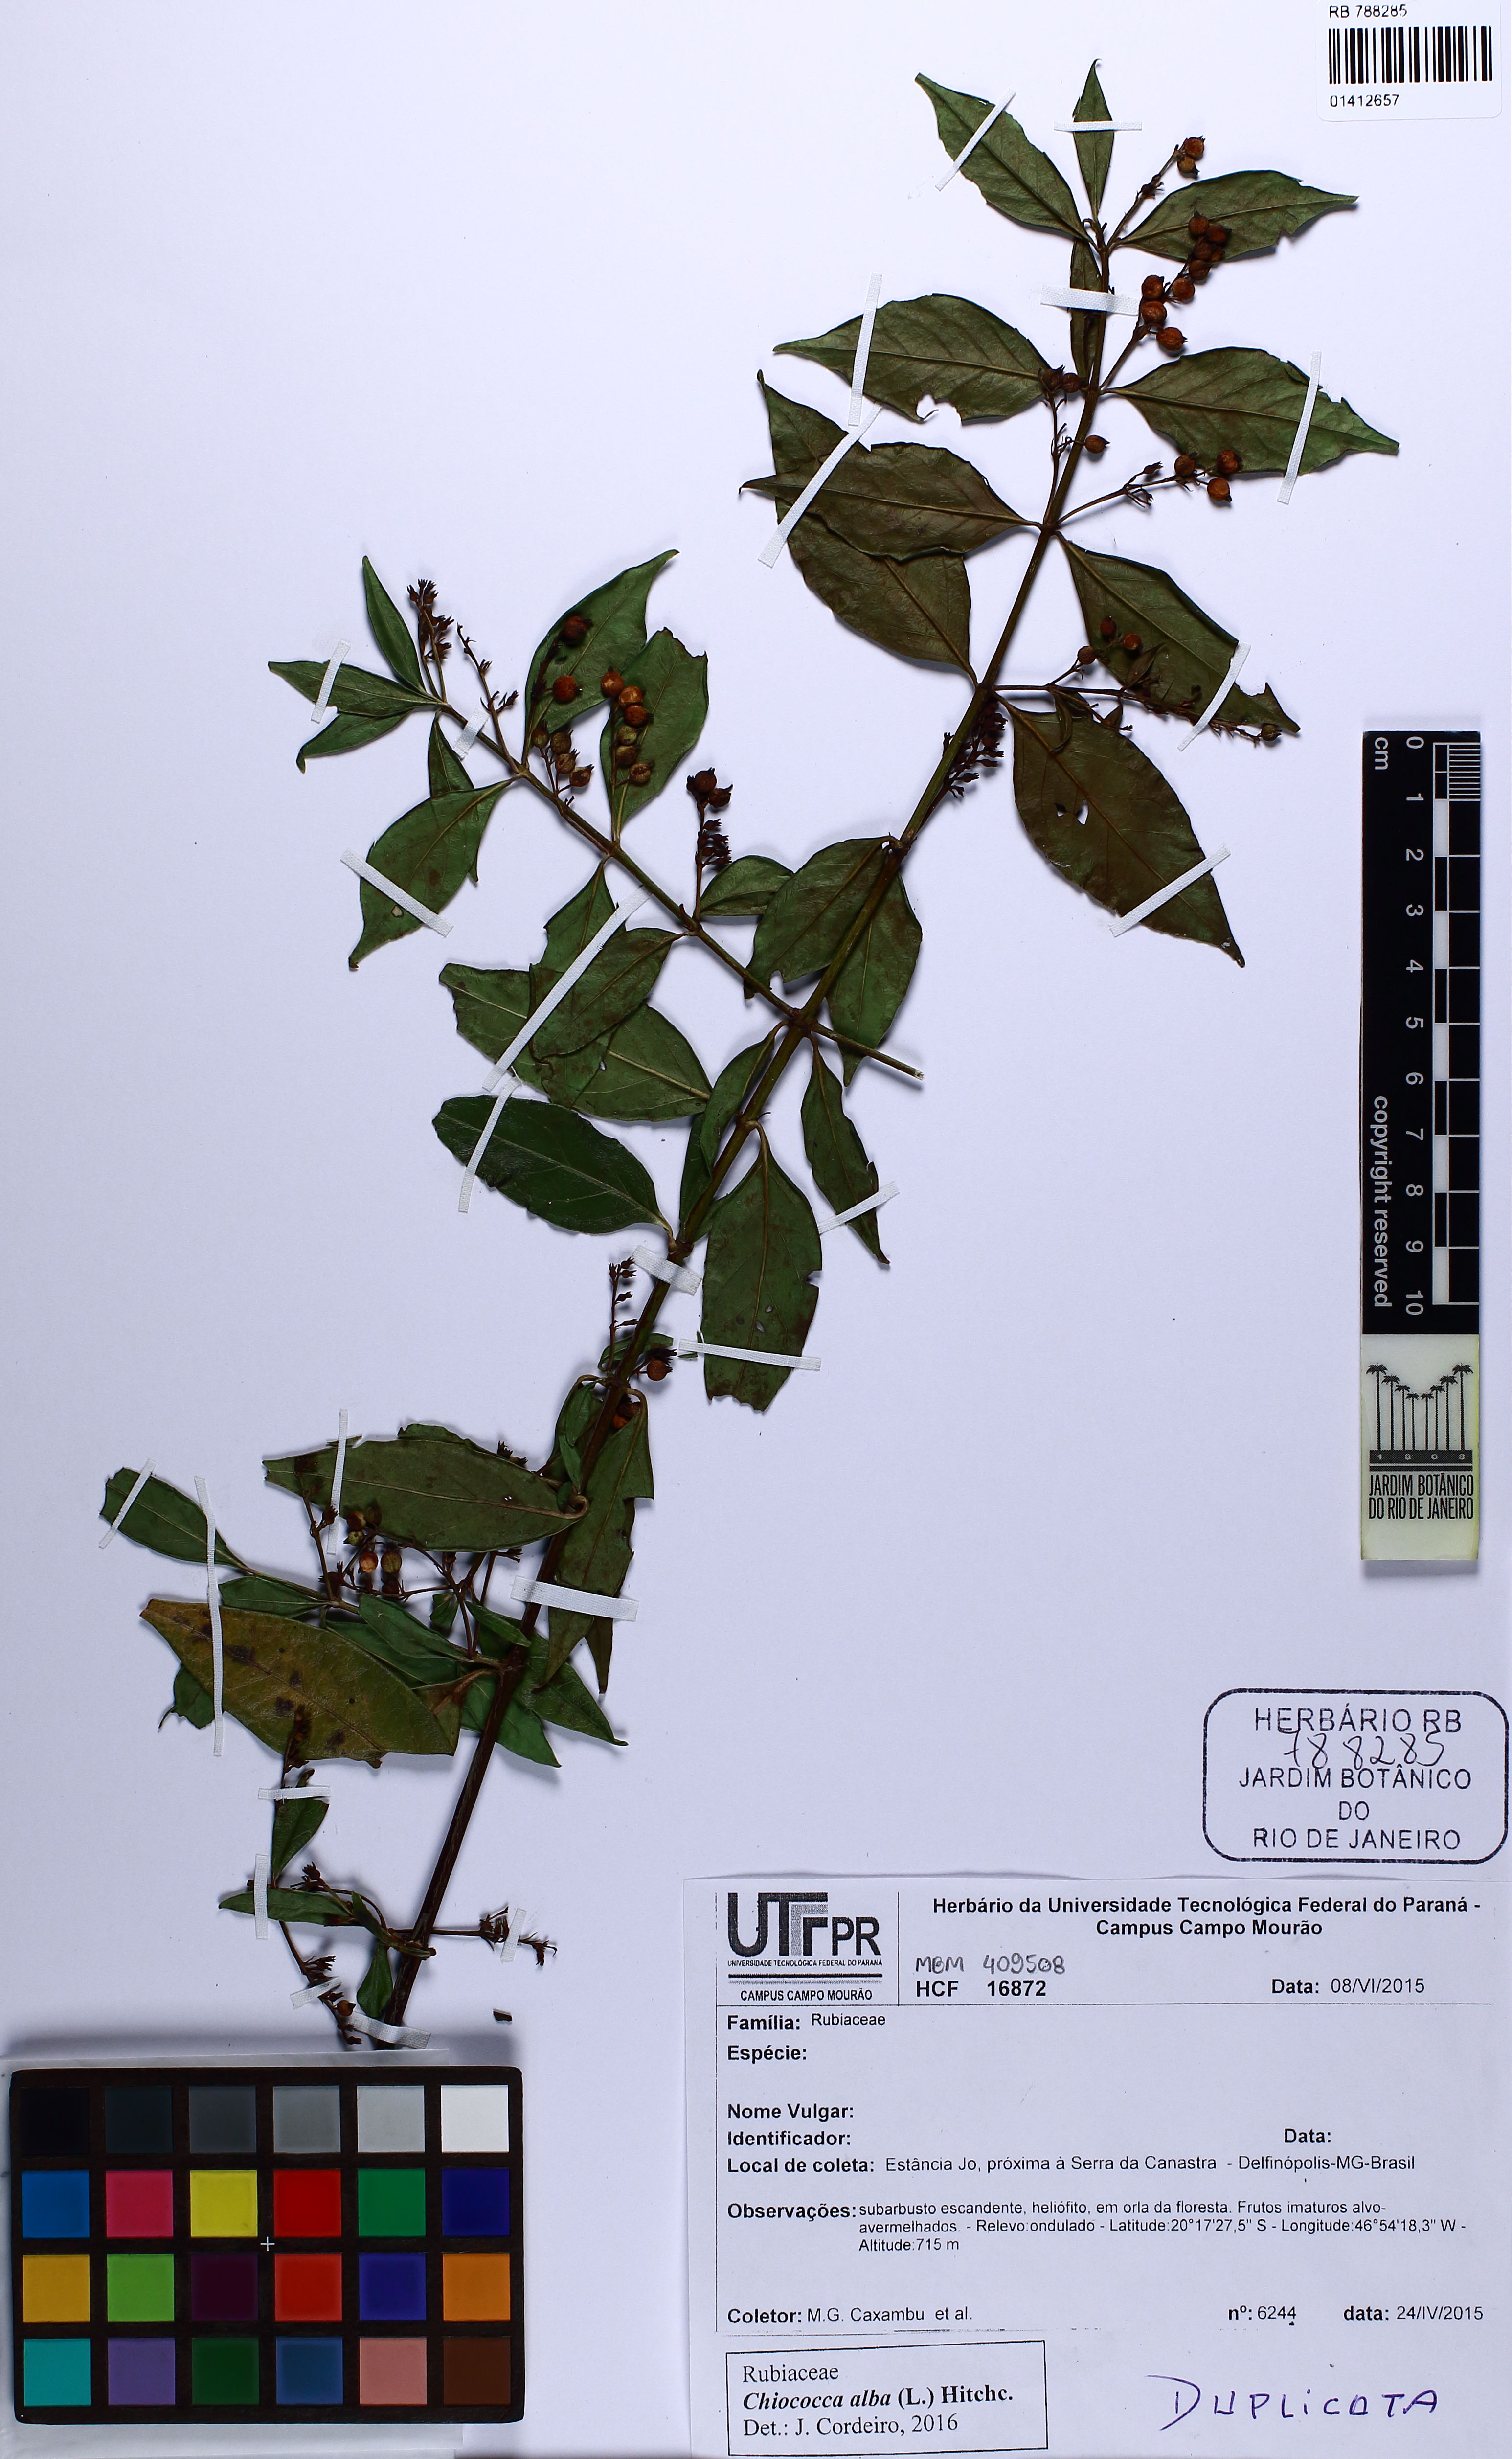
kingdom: Plantae
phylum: Tracheophyta
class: Magnoliopsida
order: Gentianales
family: Rubiaceae
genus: Chiococca
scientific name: Chiococca alba
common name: Snowberry
